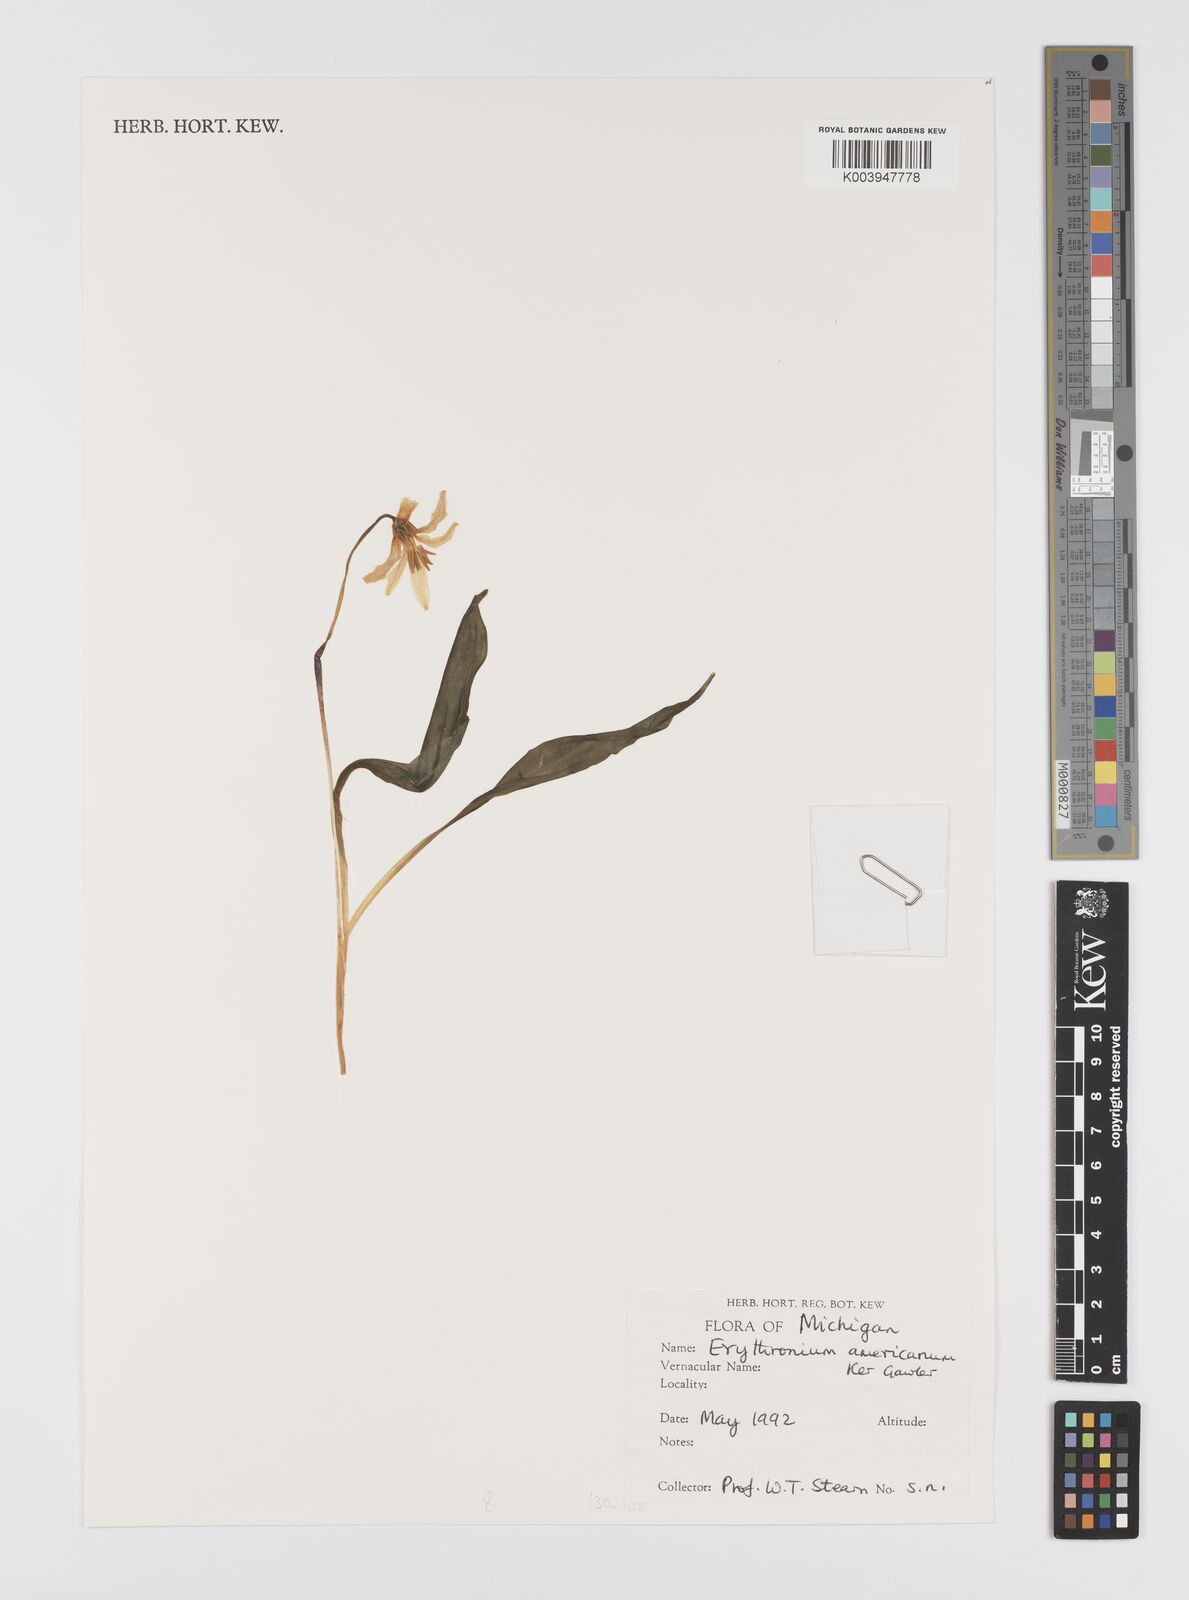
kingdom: Plantae
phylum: Tracheophyta
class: Liliopsida
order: Liliales
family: Liliaceae
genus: Erythronium
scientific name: Erythronium americanum
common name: Yellow adder's-tongue
